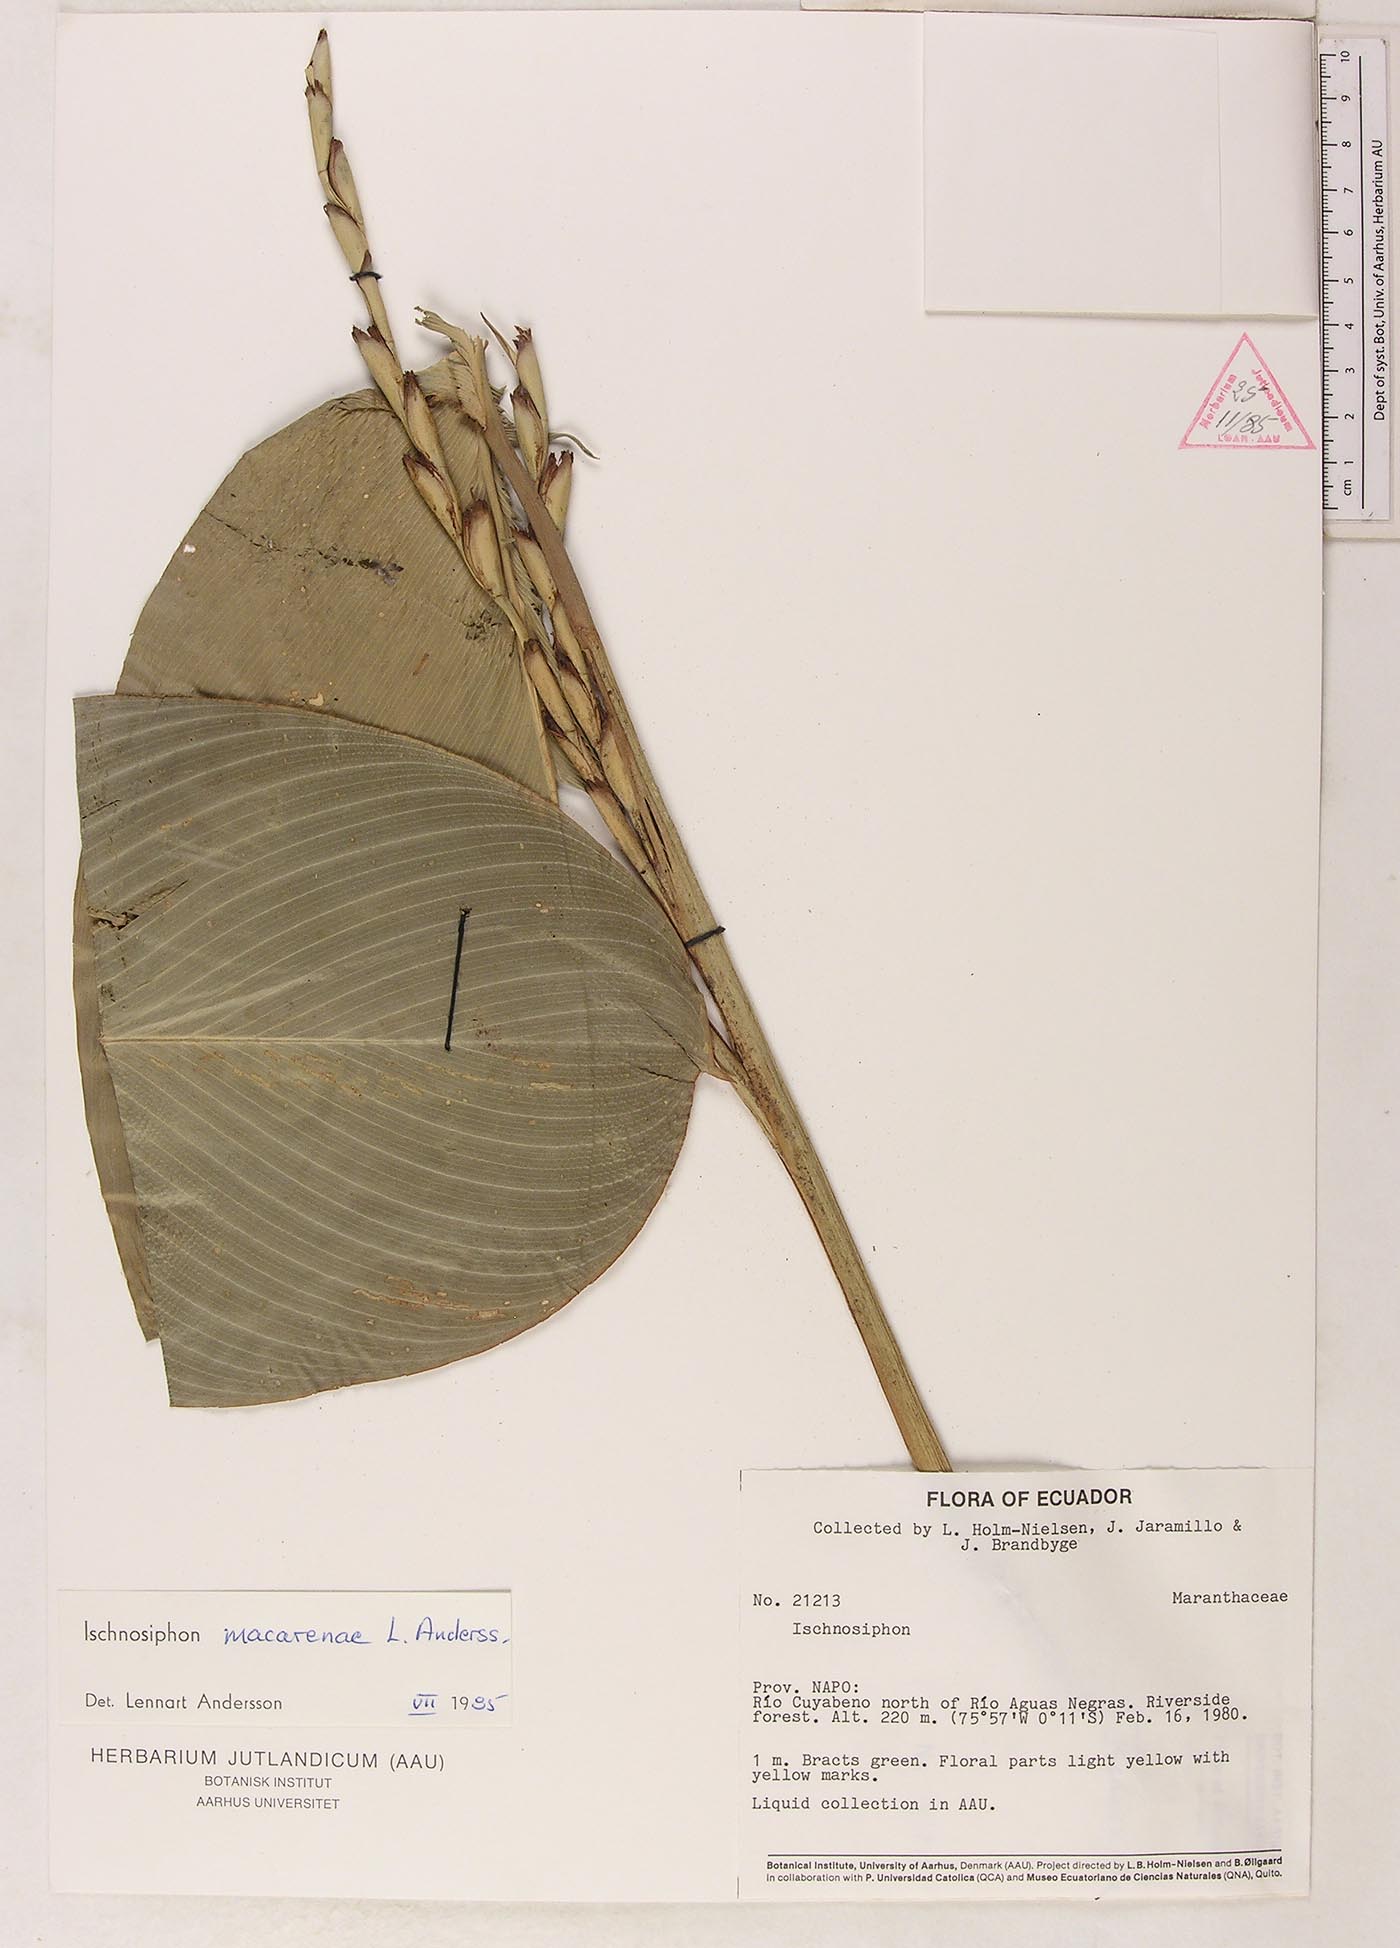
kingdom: Plantae
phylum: Tracheophyta
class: Liliopsida
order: Zingiberales
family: Marantaceae
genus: Ischnosiphon
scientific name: Ischnosiphon macarenae
